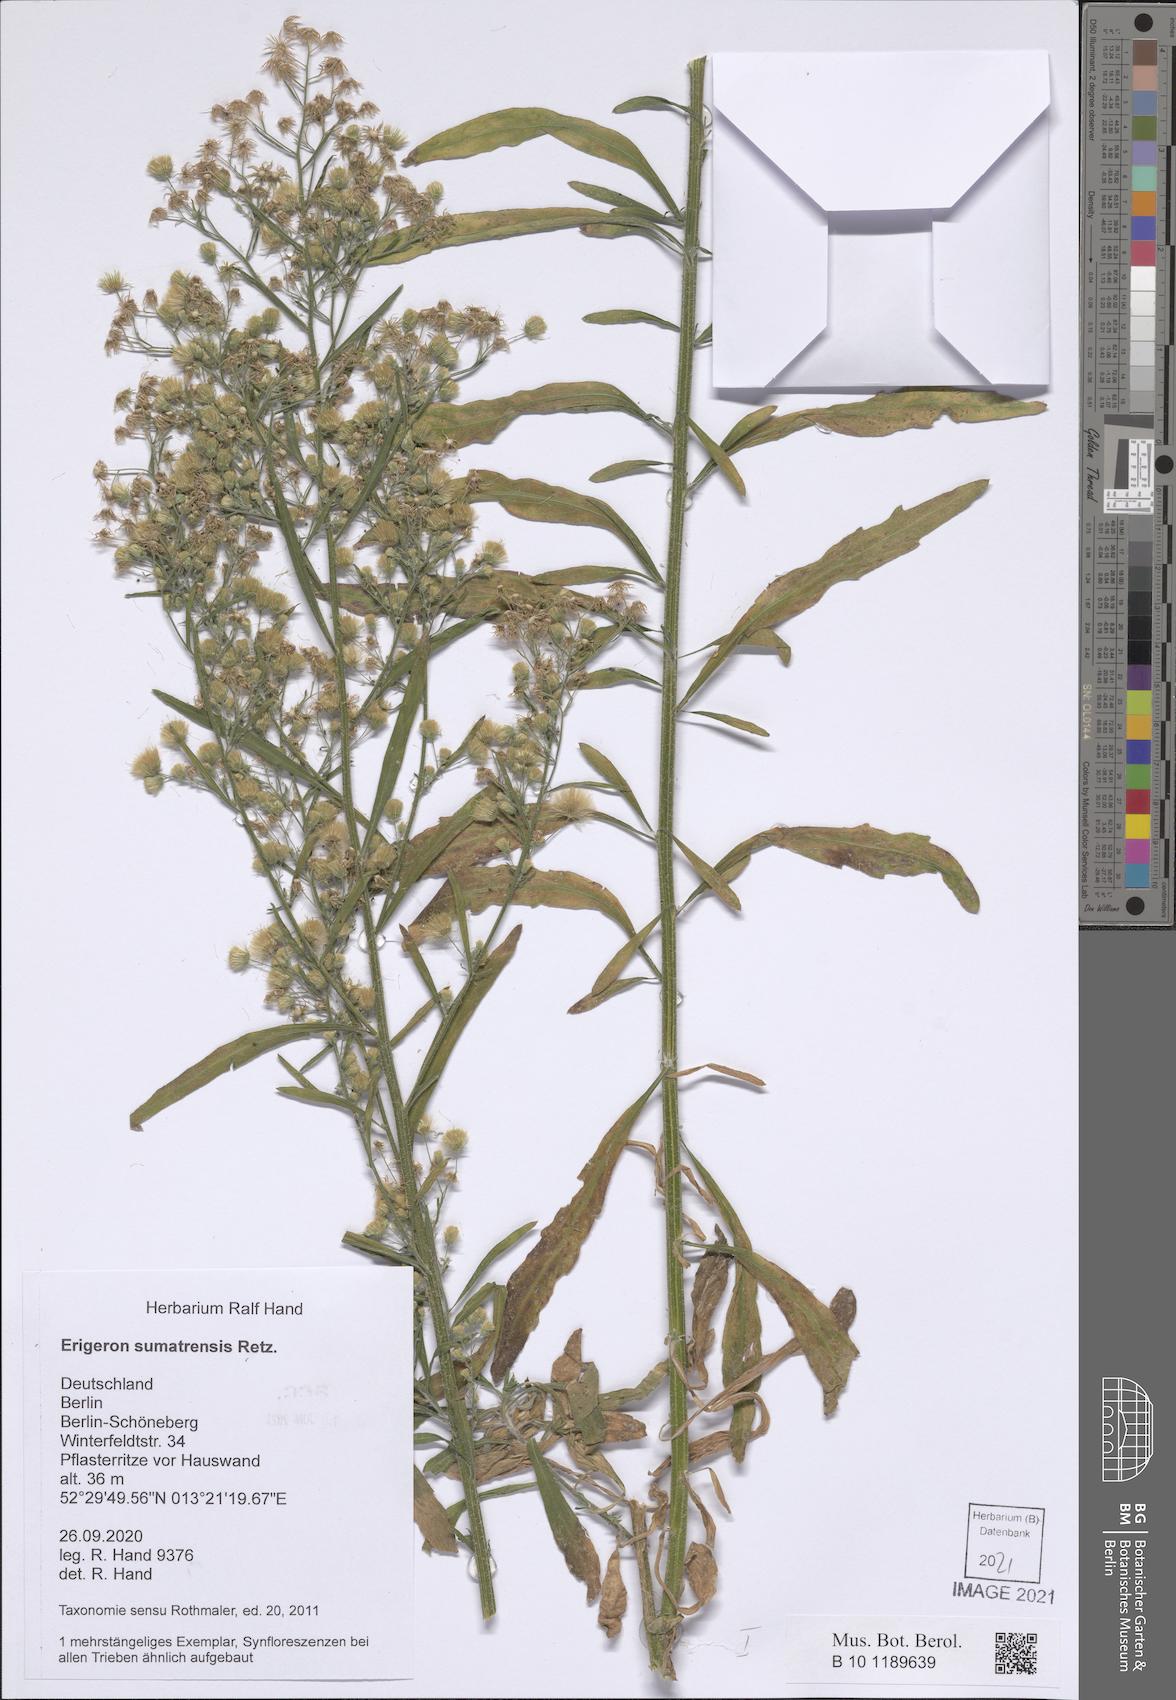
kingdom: Plantae
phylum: Tracheophyta
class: Magnoliopsida
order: Asterales
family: Asteraceae
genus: Erigeron
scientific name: Erigeron sumatrensis
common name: Daisy
